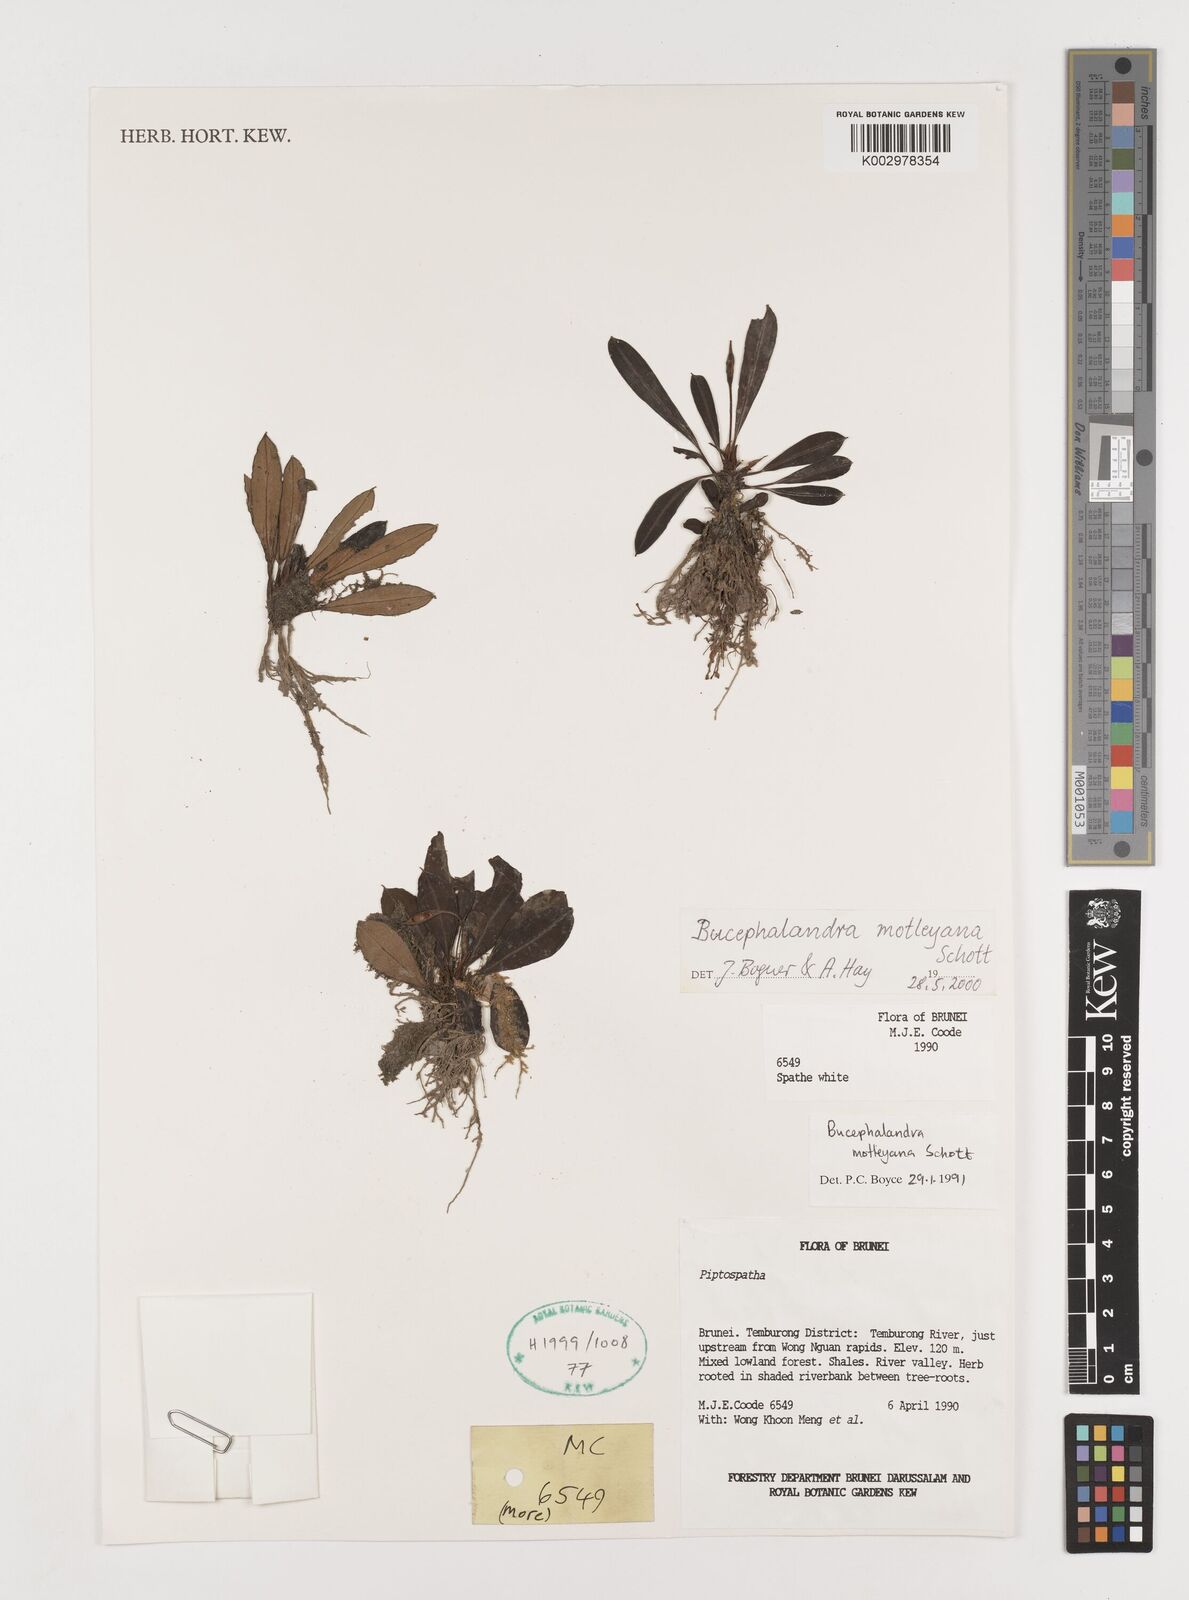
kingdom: Plantae
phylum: Tracheophyta
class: Liliopsida
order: Alismatales
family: Araceae
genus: Bucephalandra
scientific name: Bucephalandra motleyana
